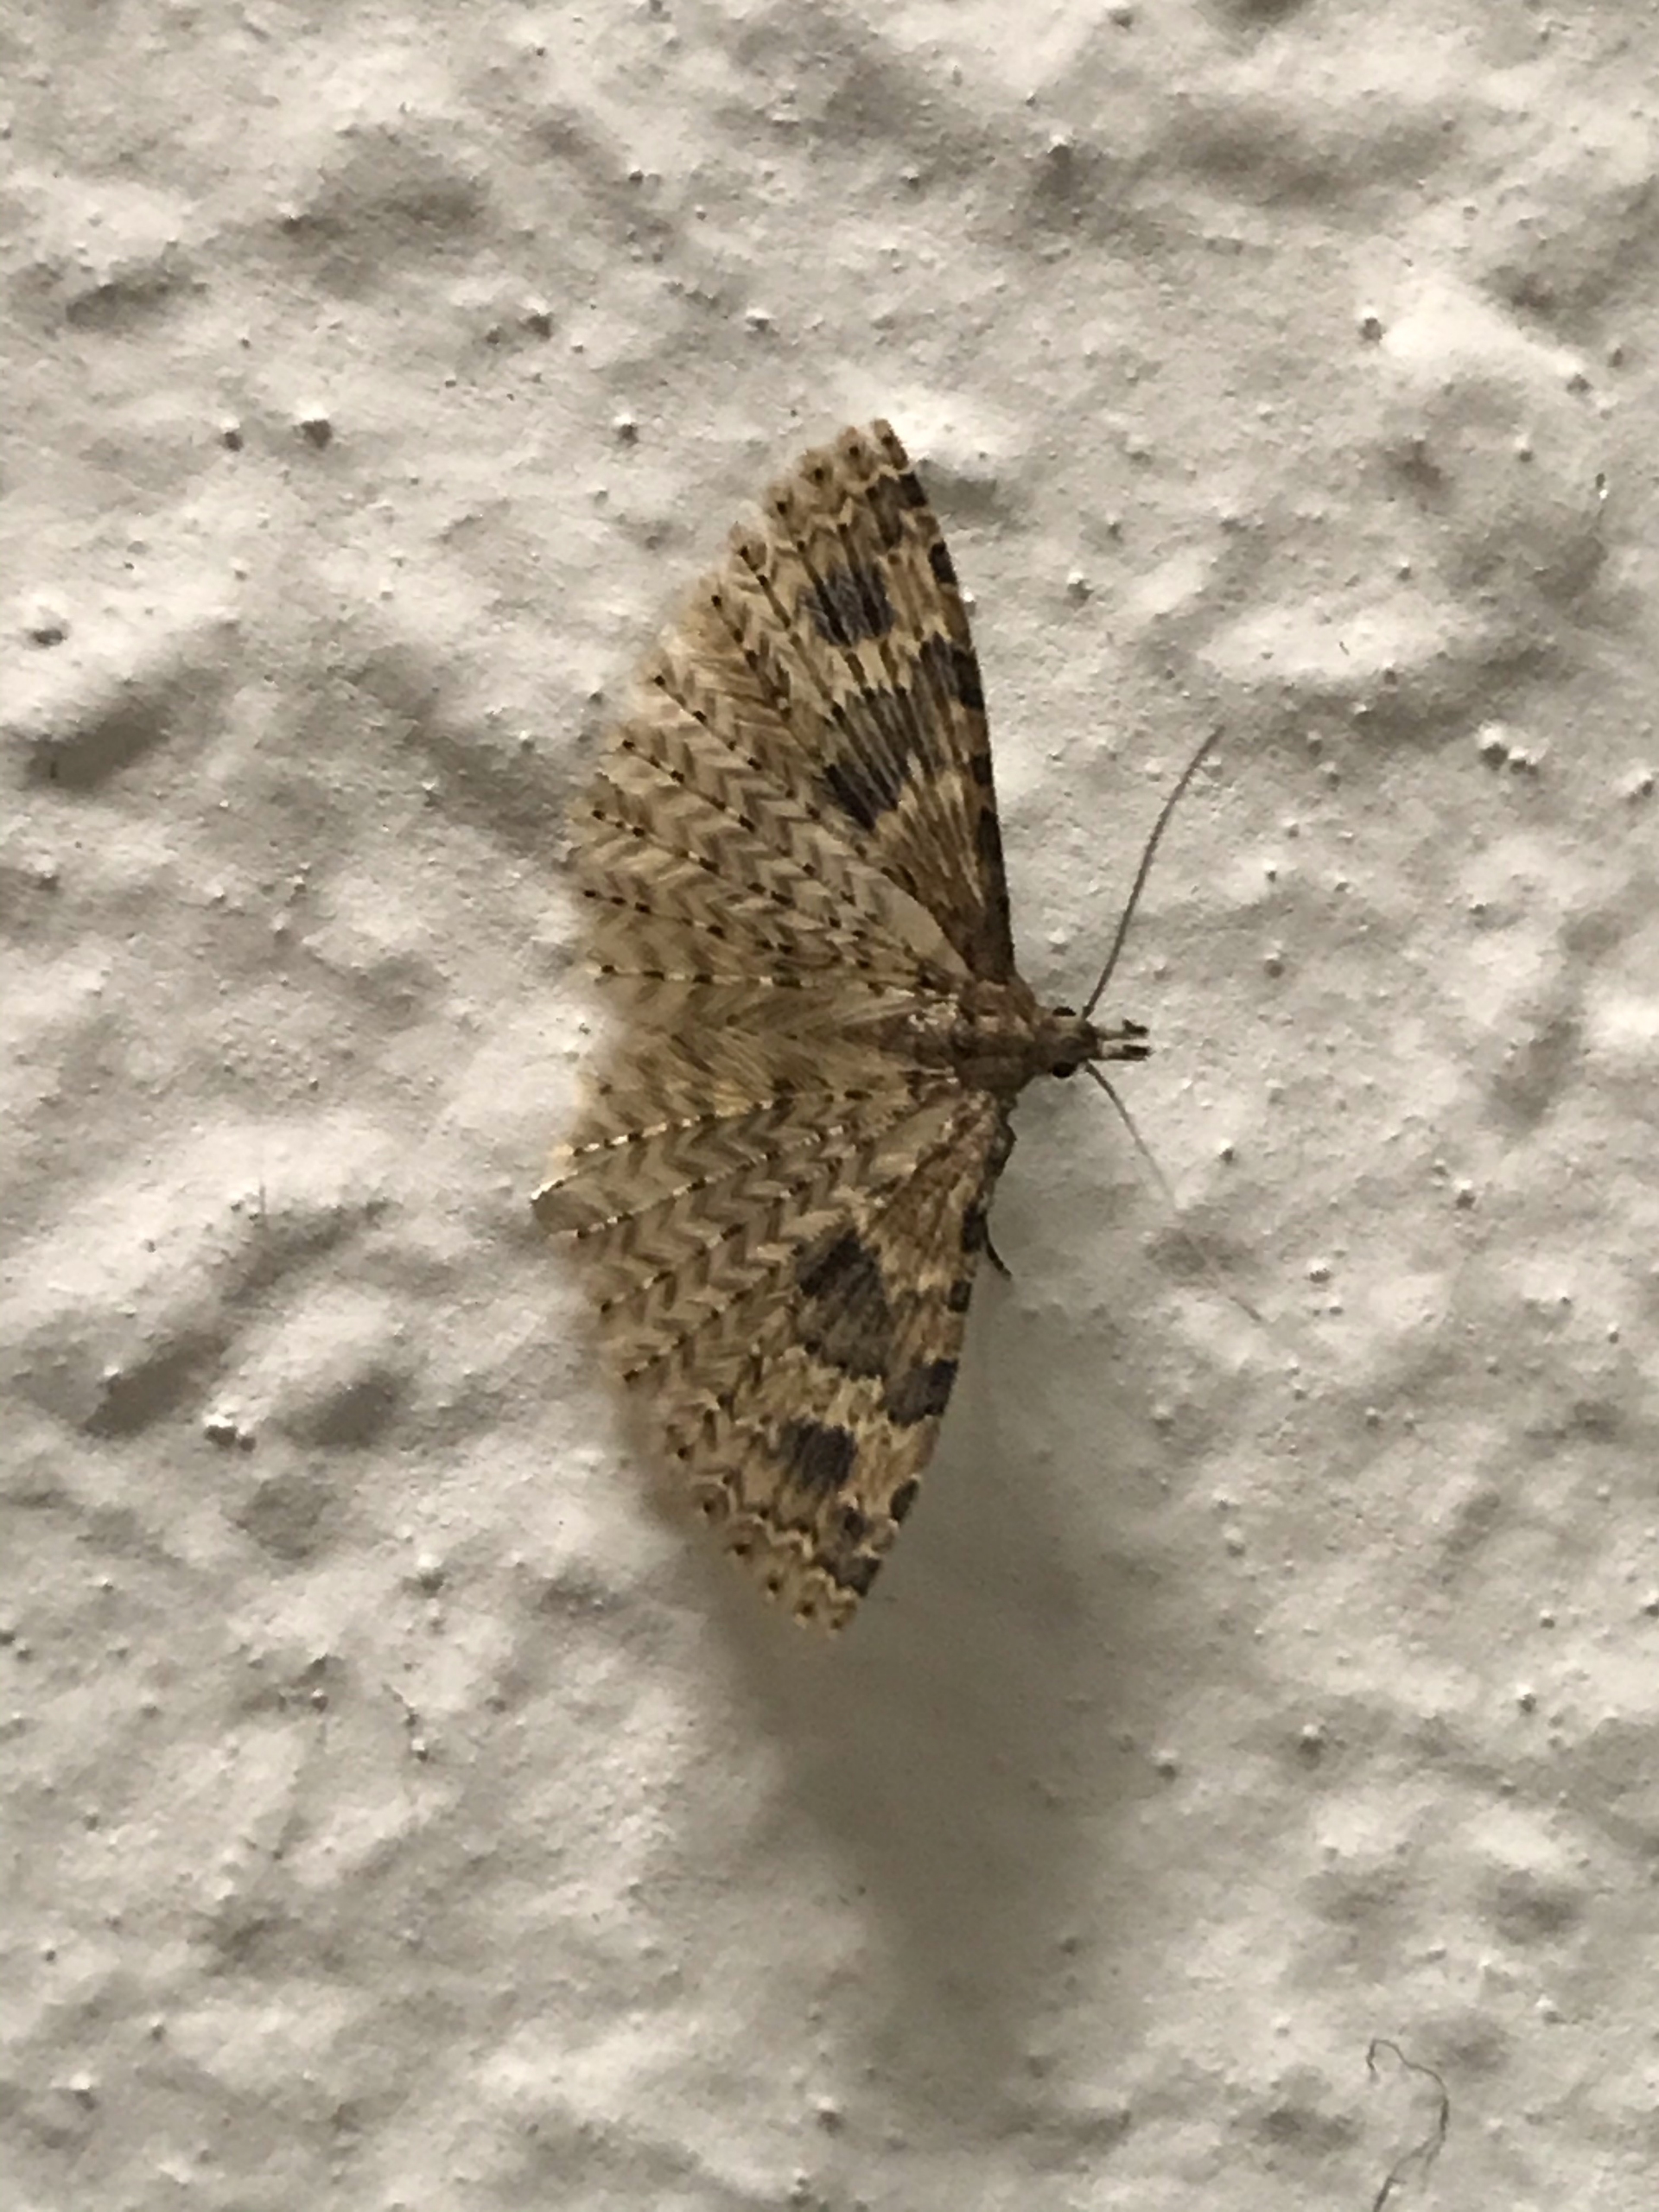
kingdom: Animalia
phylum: Arthropoda
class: Insecta
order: Lepidoptera
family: Alucitidae
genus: Alucita
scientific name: Alucita hexadactyla
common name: Kaprifoliefjermøl
